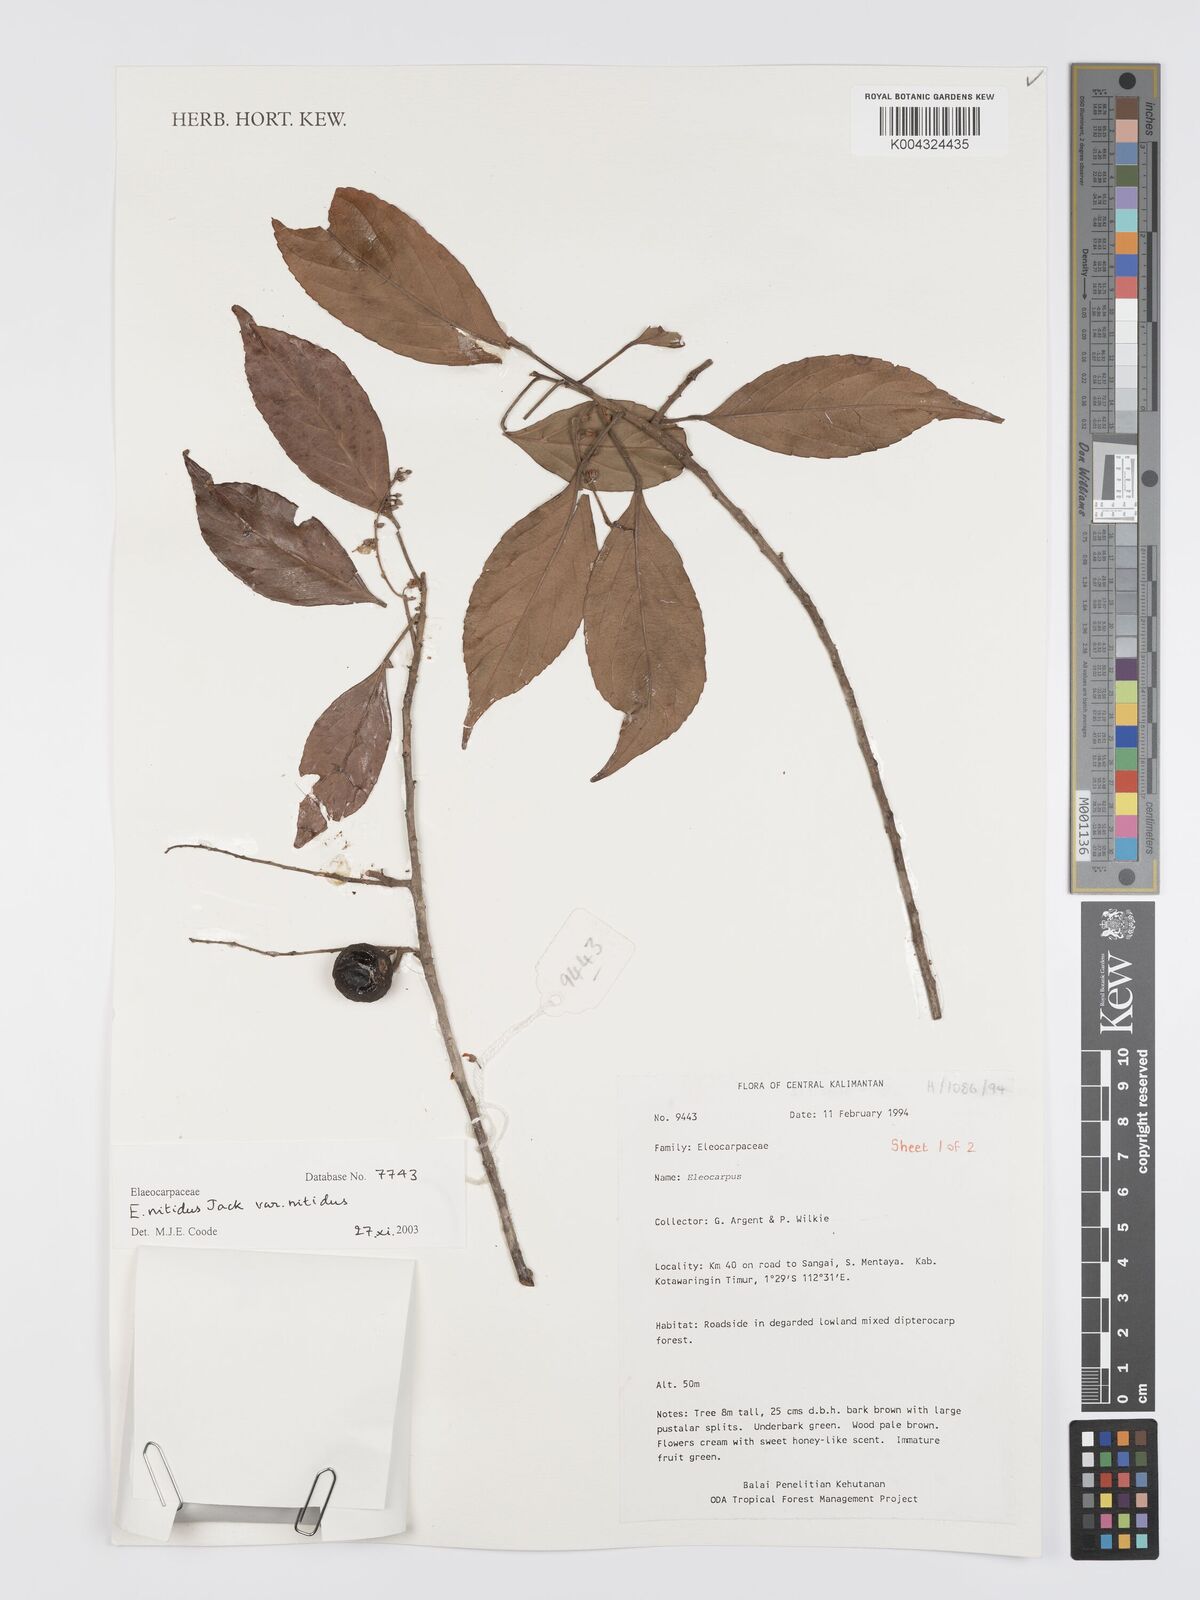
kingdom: Plantae
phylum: Tracheophyta
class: Magnoliopsida
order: Oxalidales
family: Elaeocarpaceae
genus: Elaeocarpus
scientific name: Elaeocarpus nitidus
